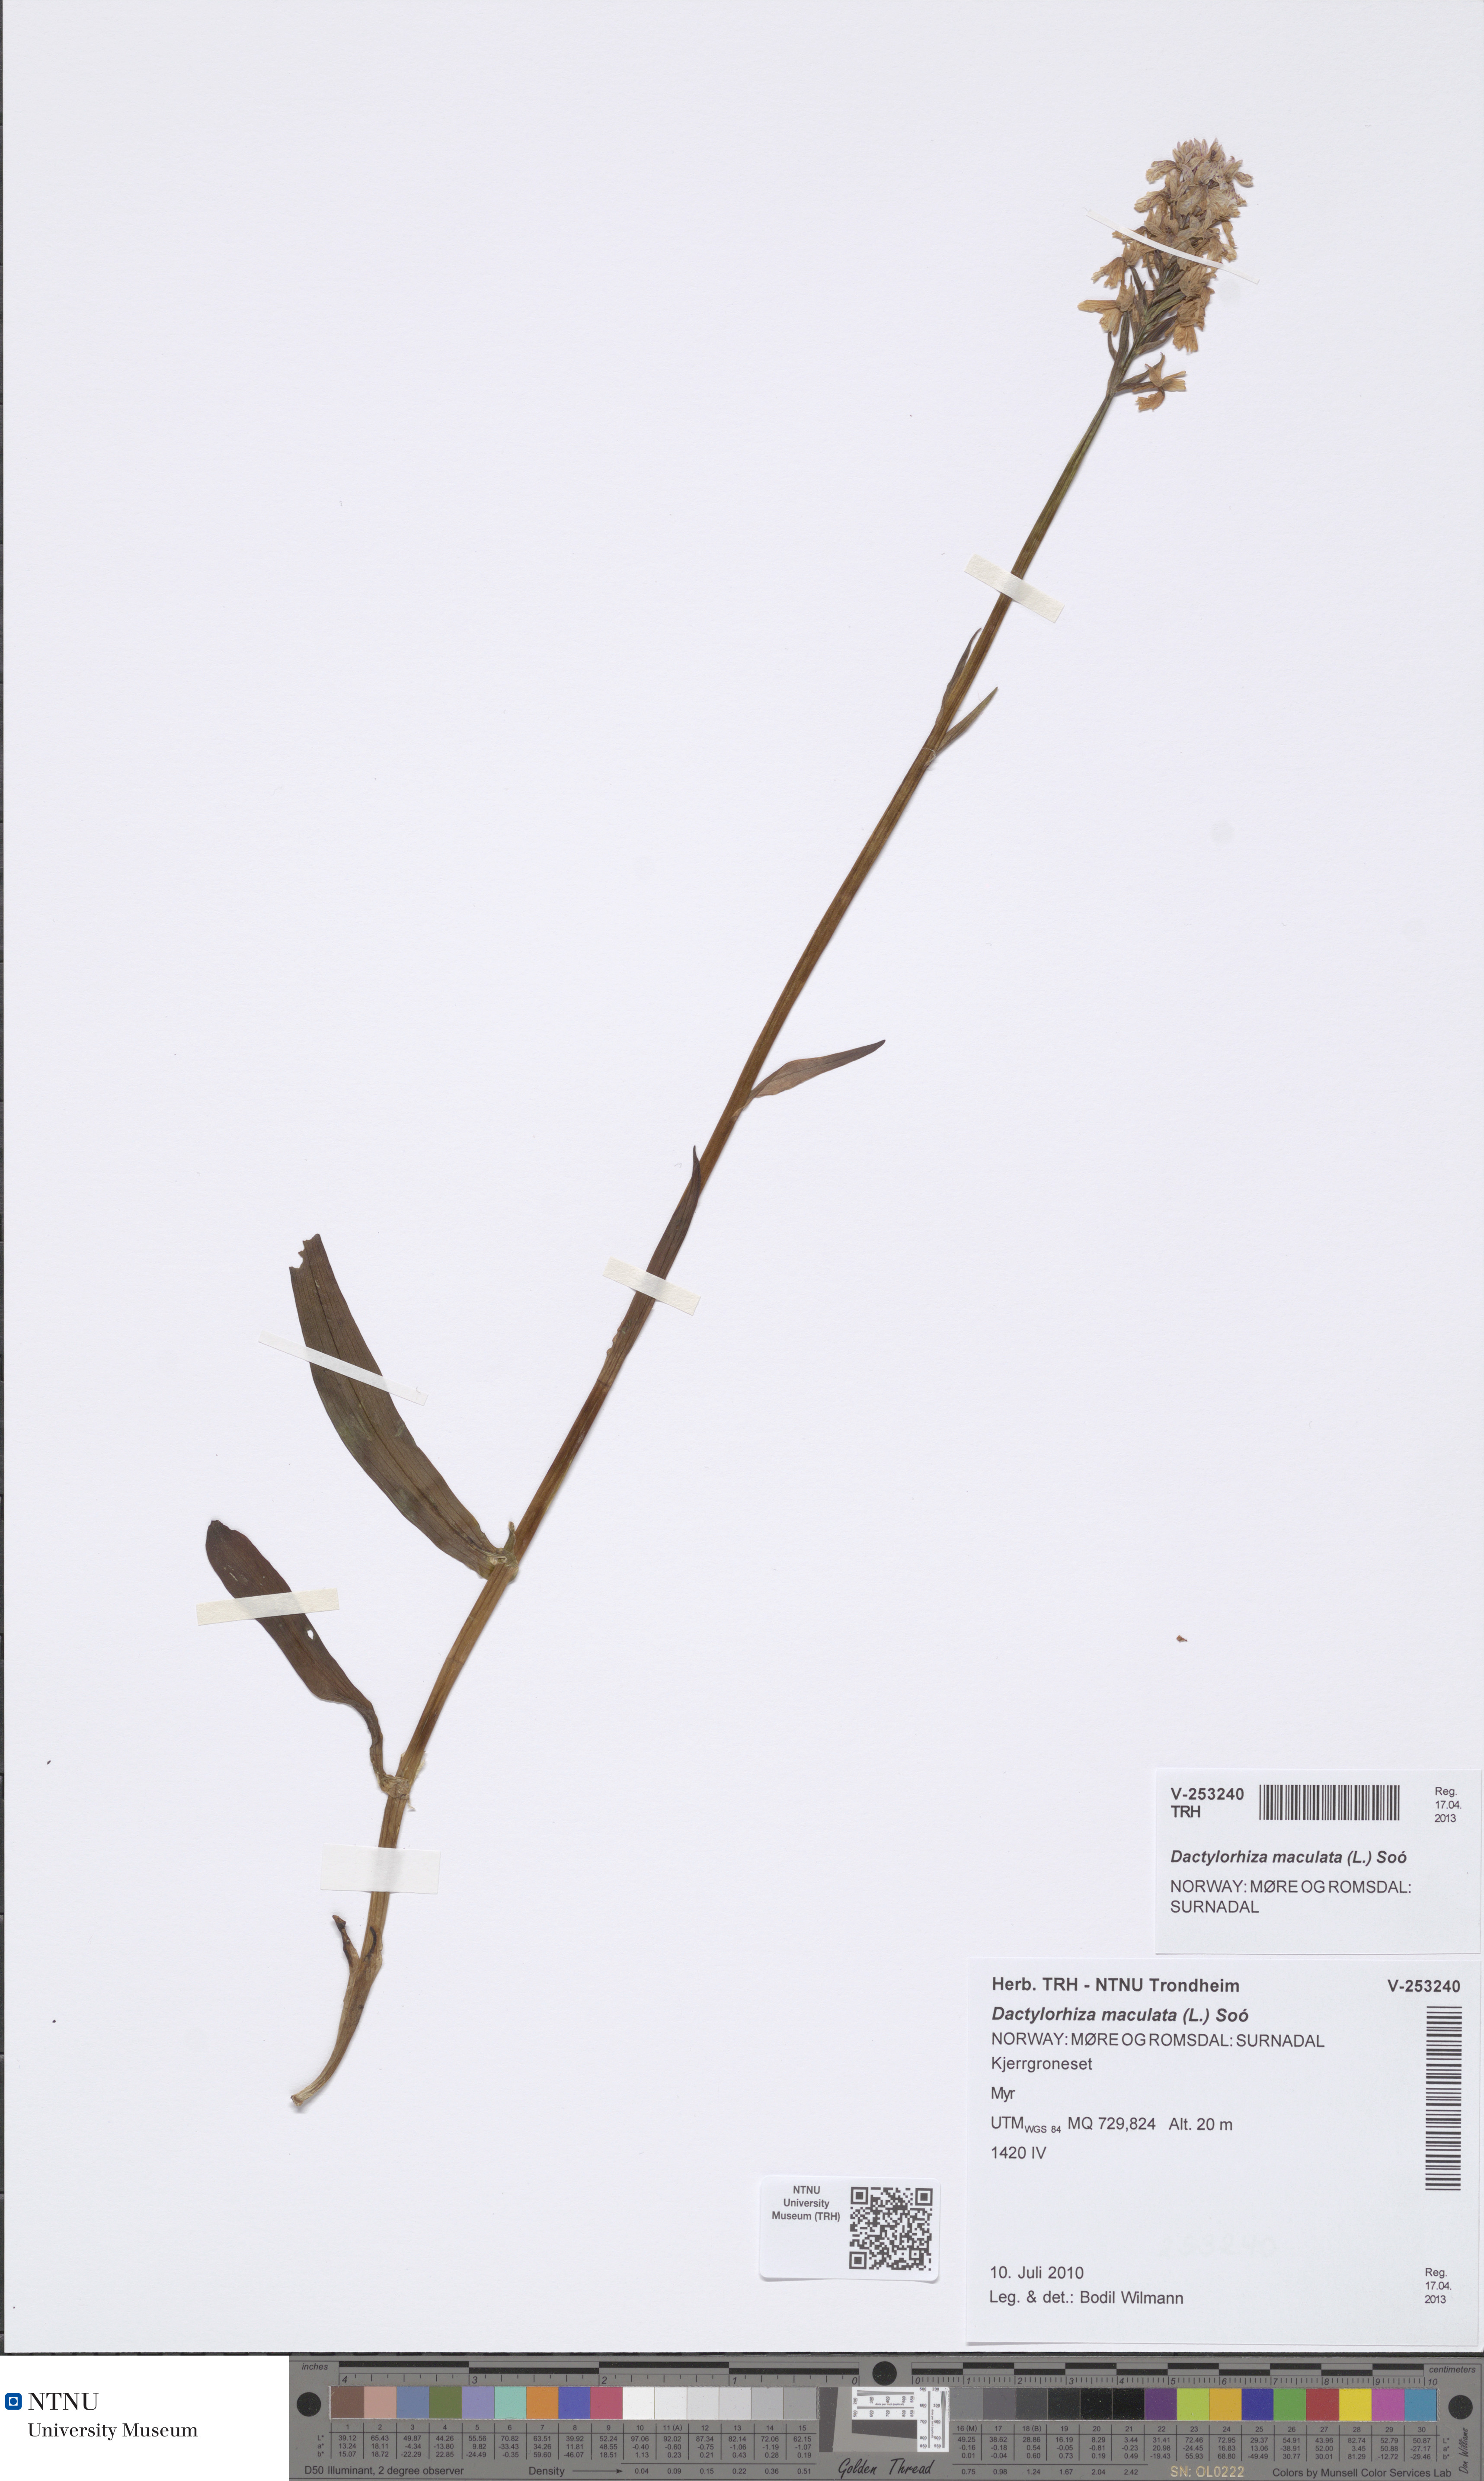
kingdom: Plantae
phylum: Tracheophyta
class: Liliopsida
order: Asparagales
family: Orchidaceae
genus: Dactylorhiza
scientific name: Dactylorhiza maculata
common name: Heath spotted-orchid
